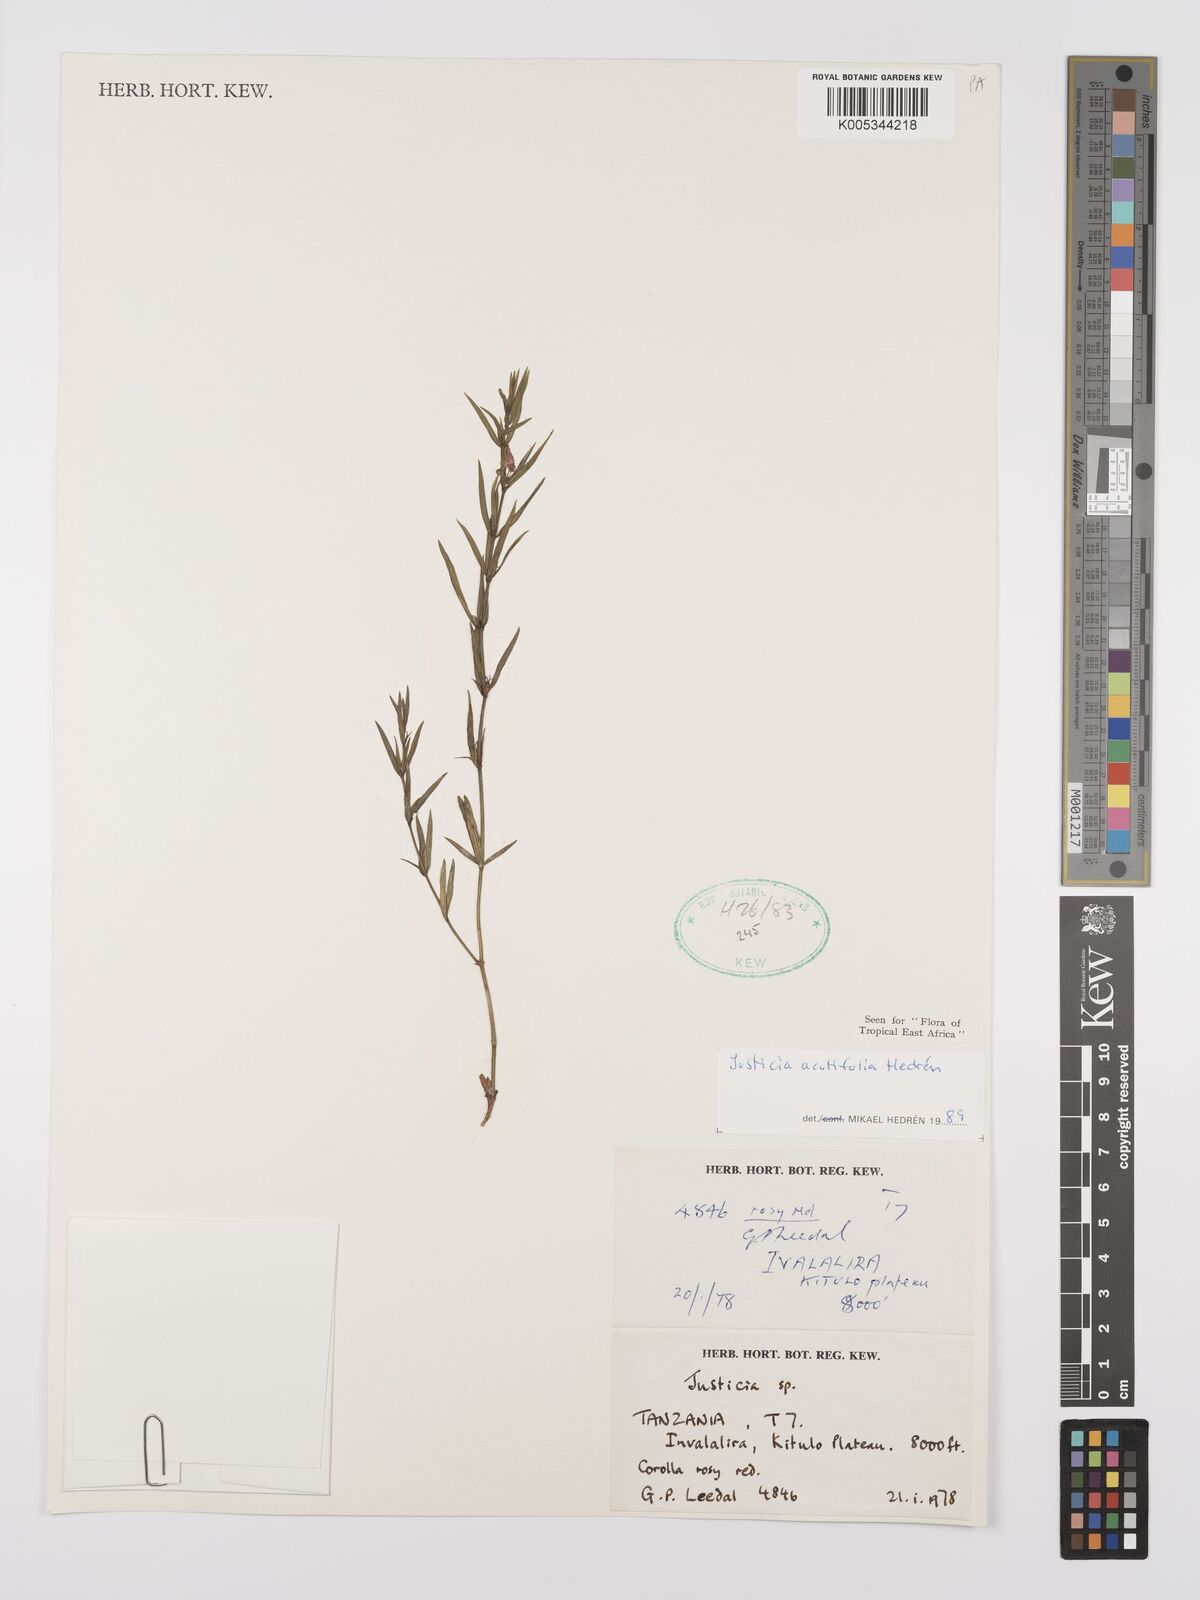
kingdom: Plantae
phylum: Tracheophyta
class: Magnoliopsida
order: Lamiales
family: Acanthaceae
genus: Justicia
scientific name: Justicia acutifolia
